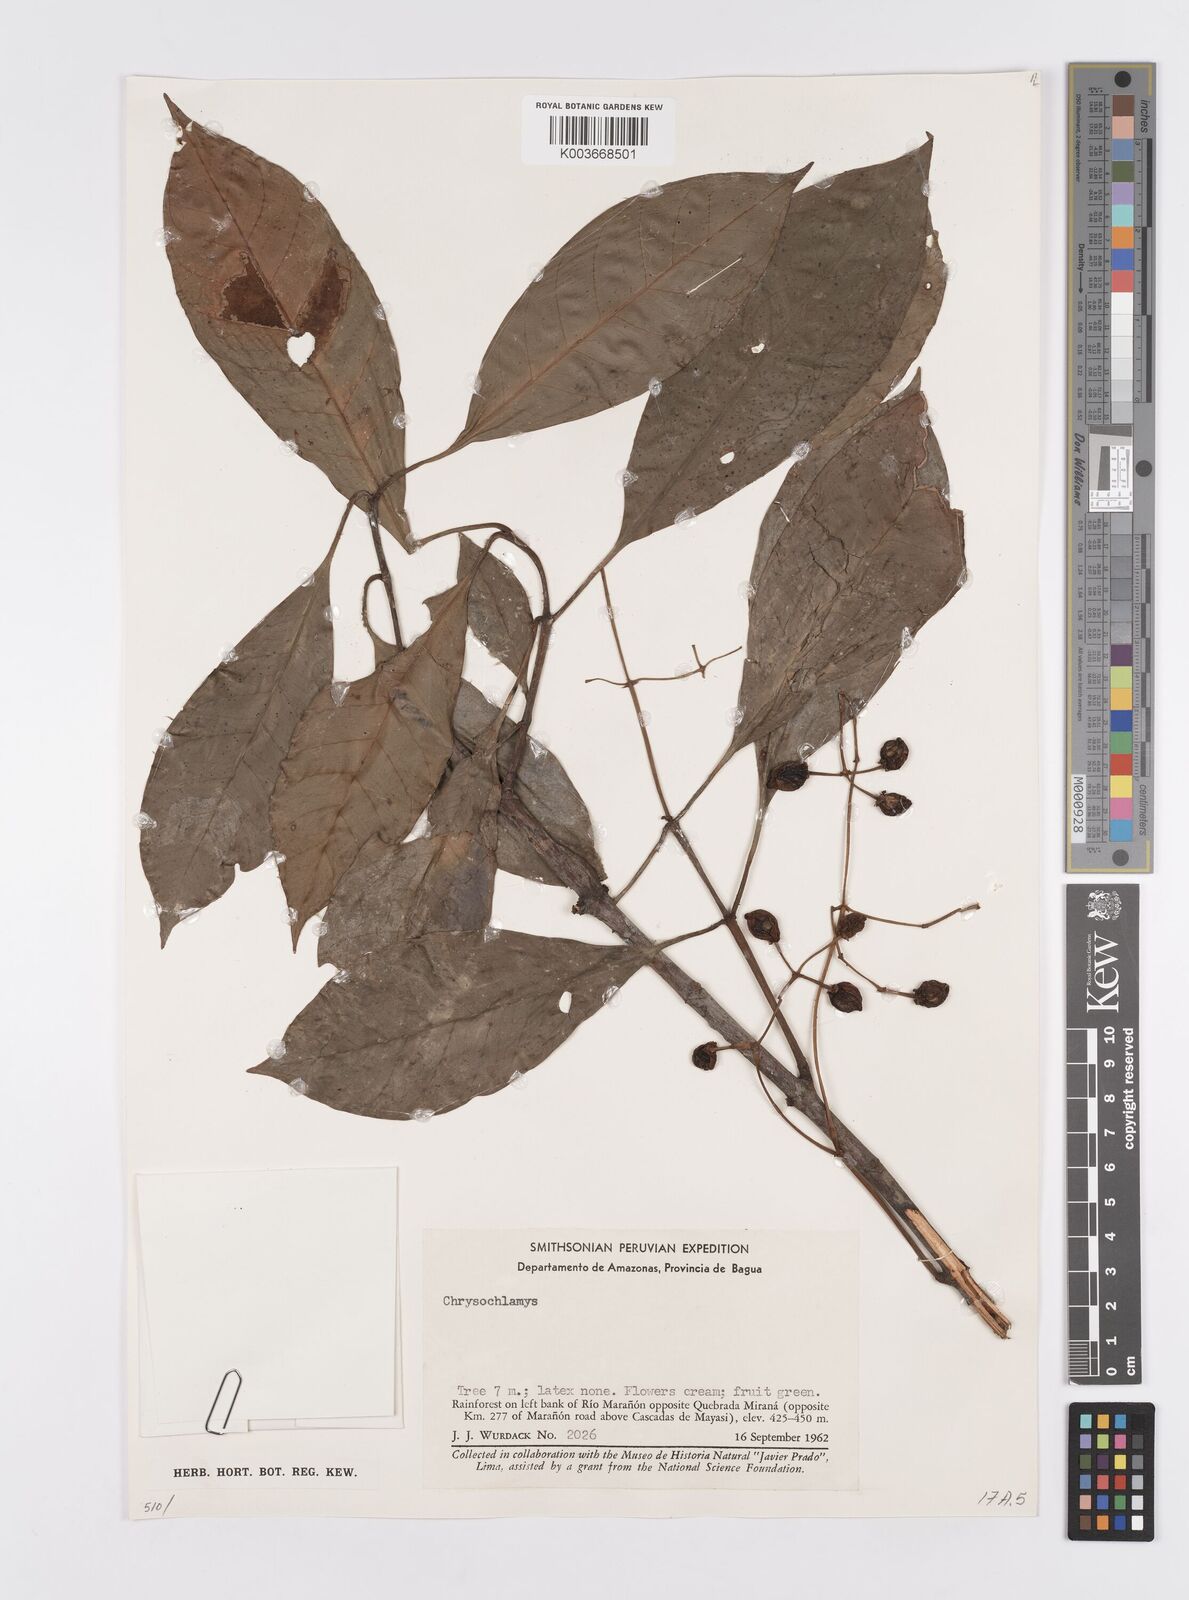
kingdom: Plantae
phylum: Tracheophyta
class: Magnoliopsida
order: Malpighiales
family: Clusiaceae
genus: Chrysochlamys
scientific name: Chrysochlamys
